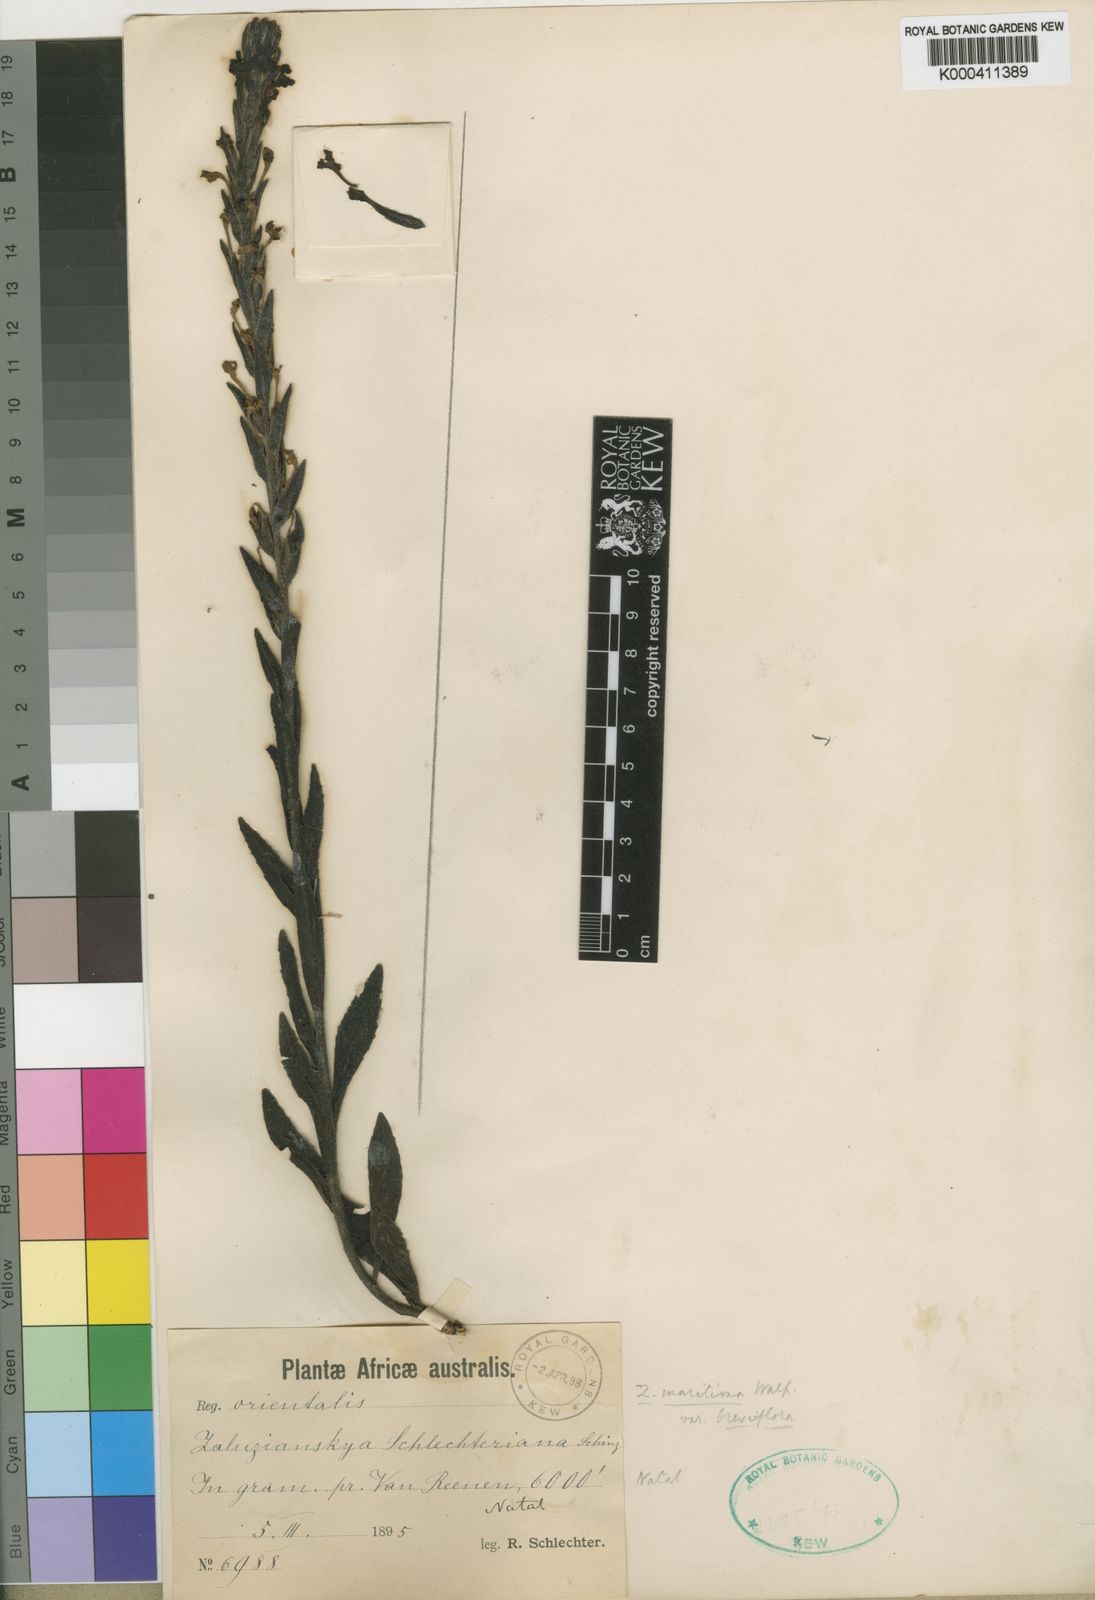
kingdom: Plantae
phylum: Tracheophyta
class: Magnoliopsida
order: Lamiales
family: Scrophulariaceae
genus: Zaluzianskya
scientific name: Zaluzianskya microsiphon
